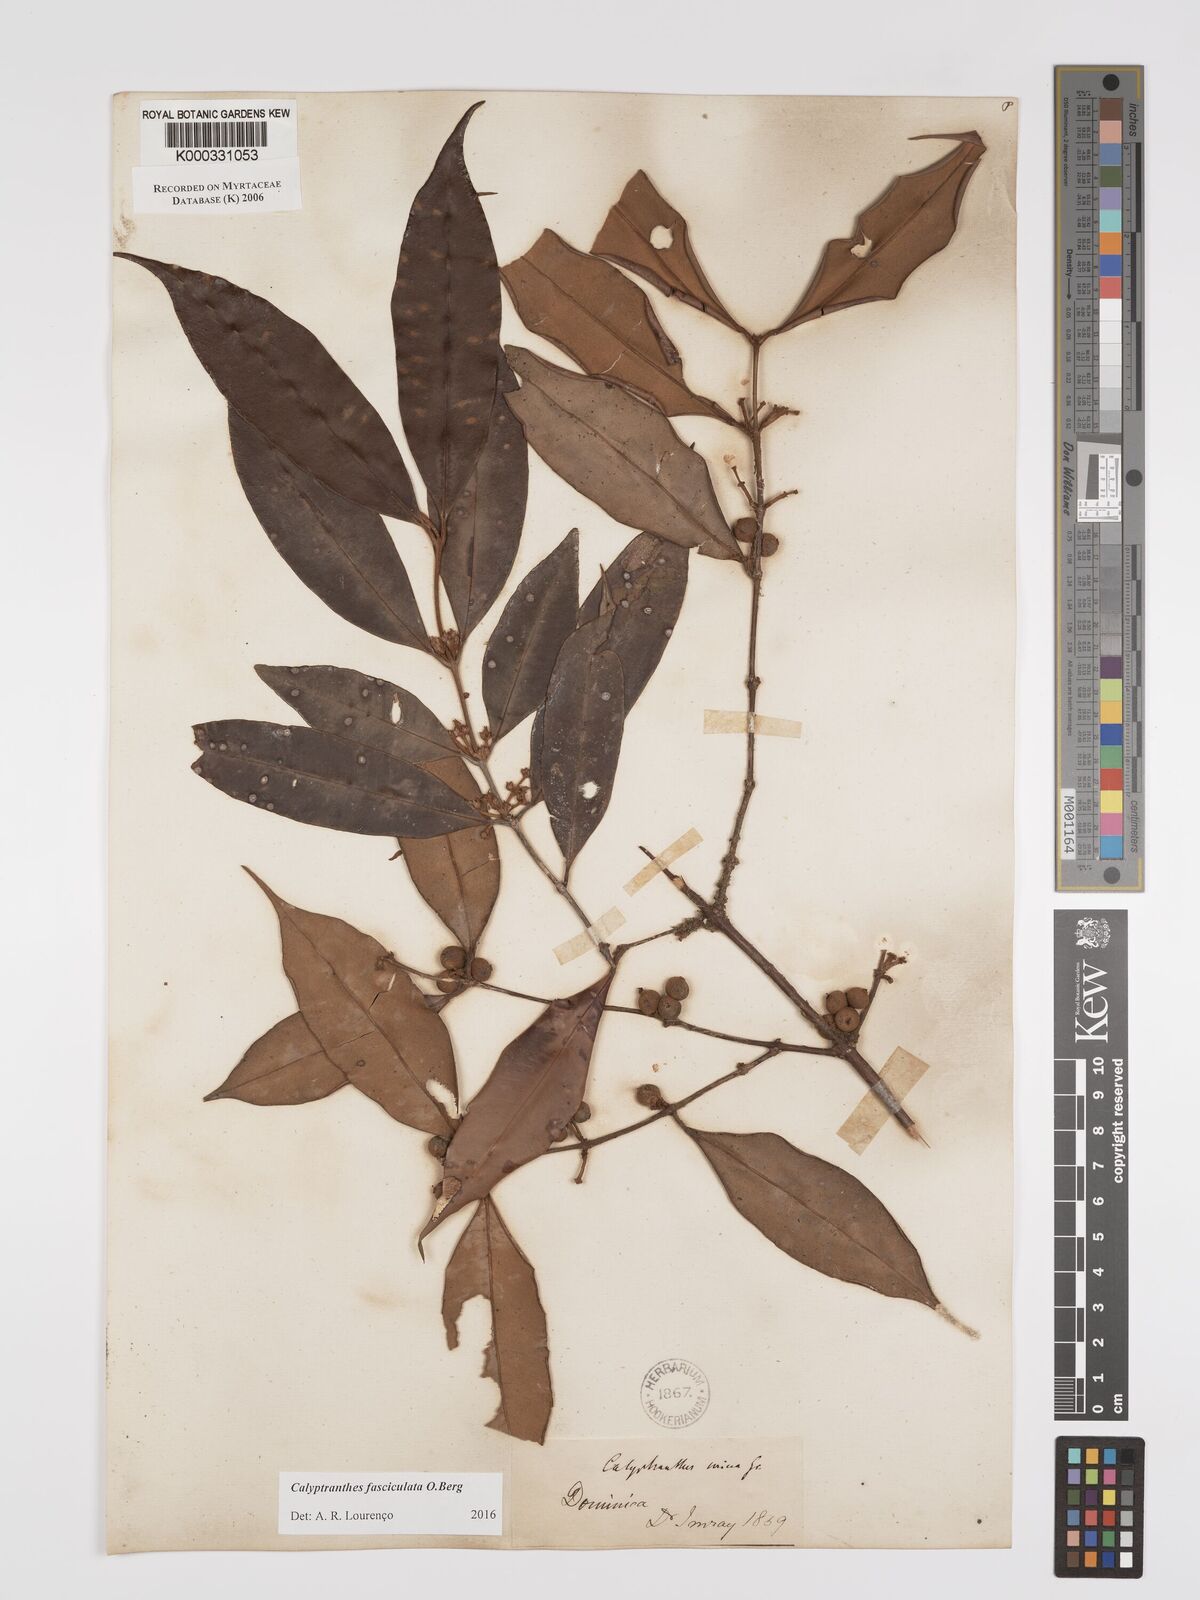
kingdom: Plantae
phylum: Tracheophyta
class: Magnoliopsida
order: Myrtales
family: Myrtaceae
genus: Myrcia
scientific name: Myrcia fasciculata
